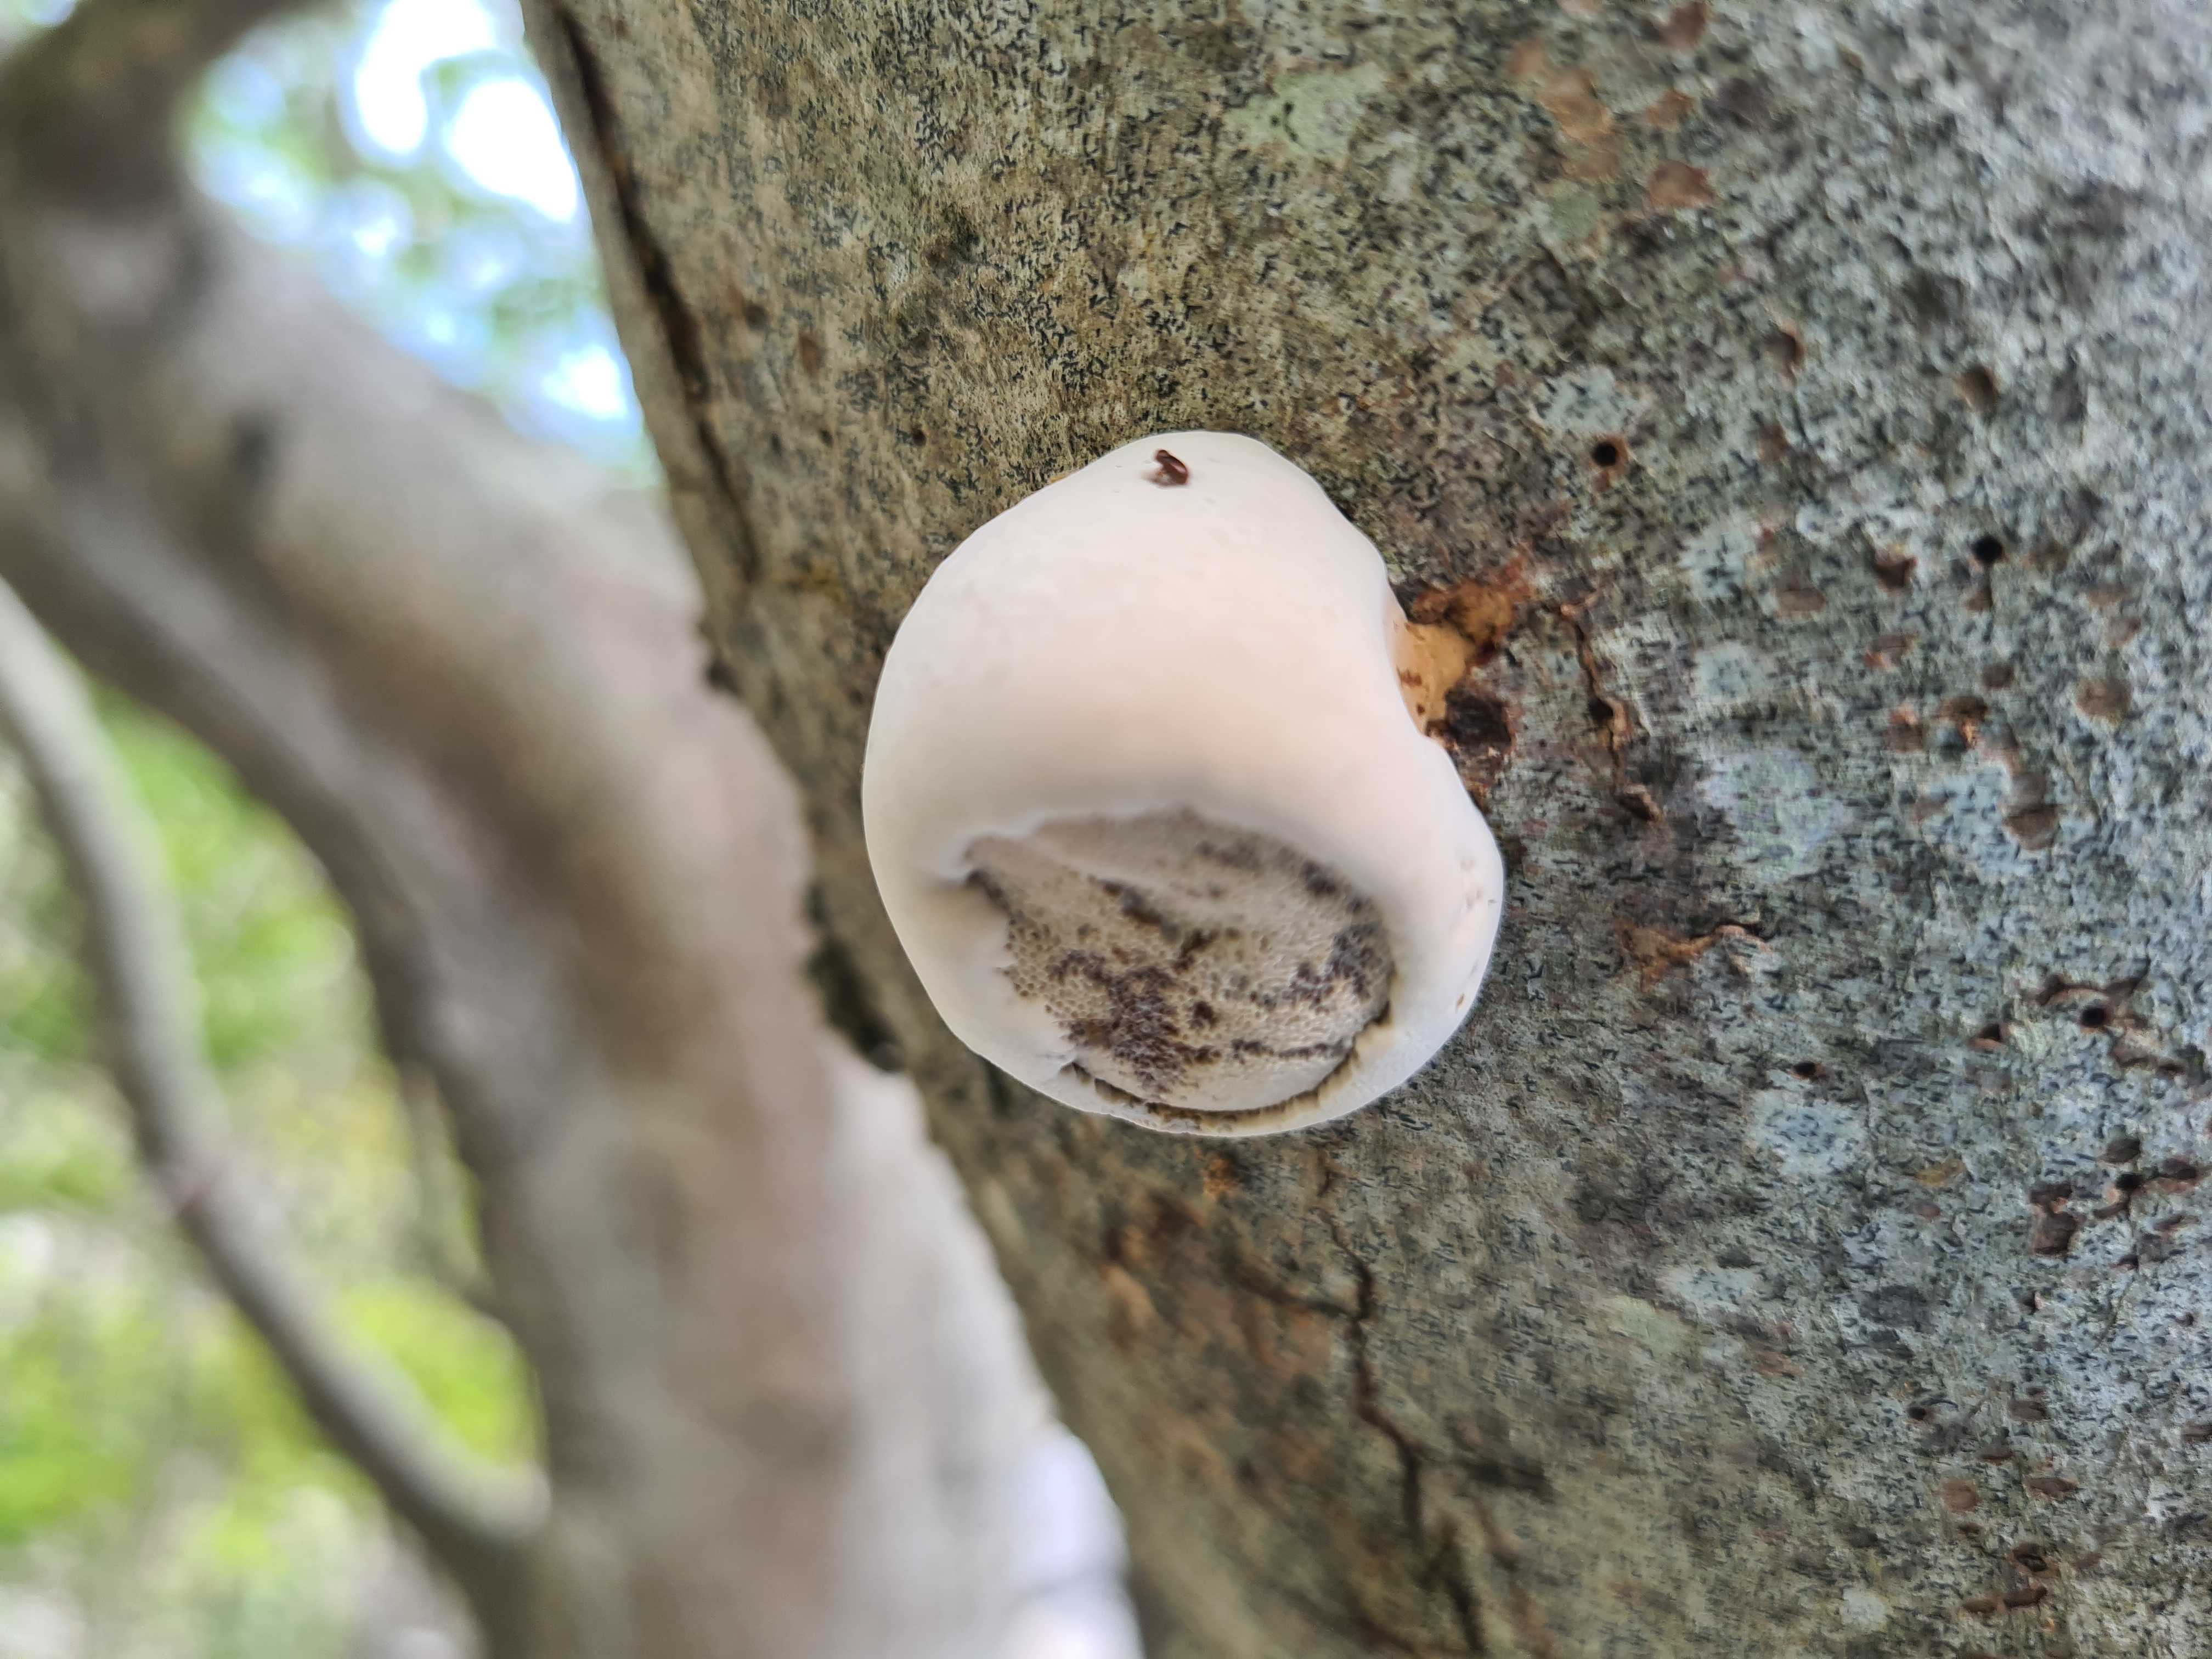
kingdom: Fungi
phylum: Basidiomycota
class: Agaricomycetes
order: Polyporales
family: Polyporaceae
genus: Fomes
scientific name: Fomes fomentarius
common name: tøndersvamp
